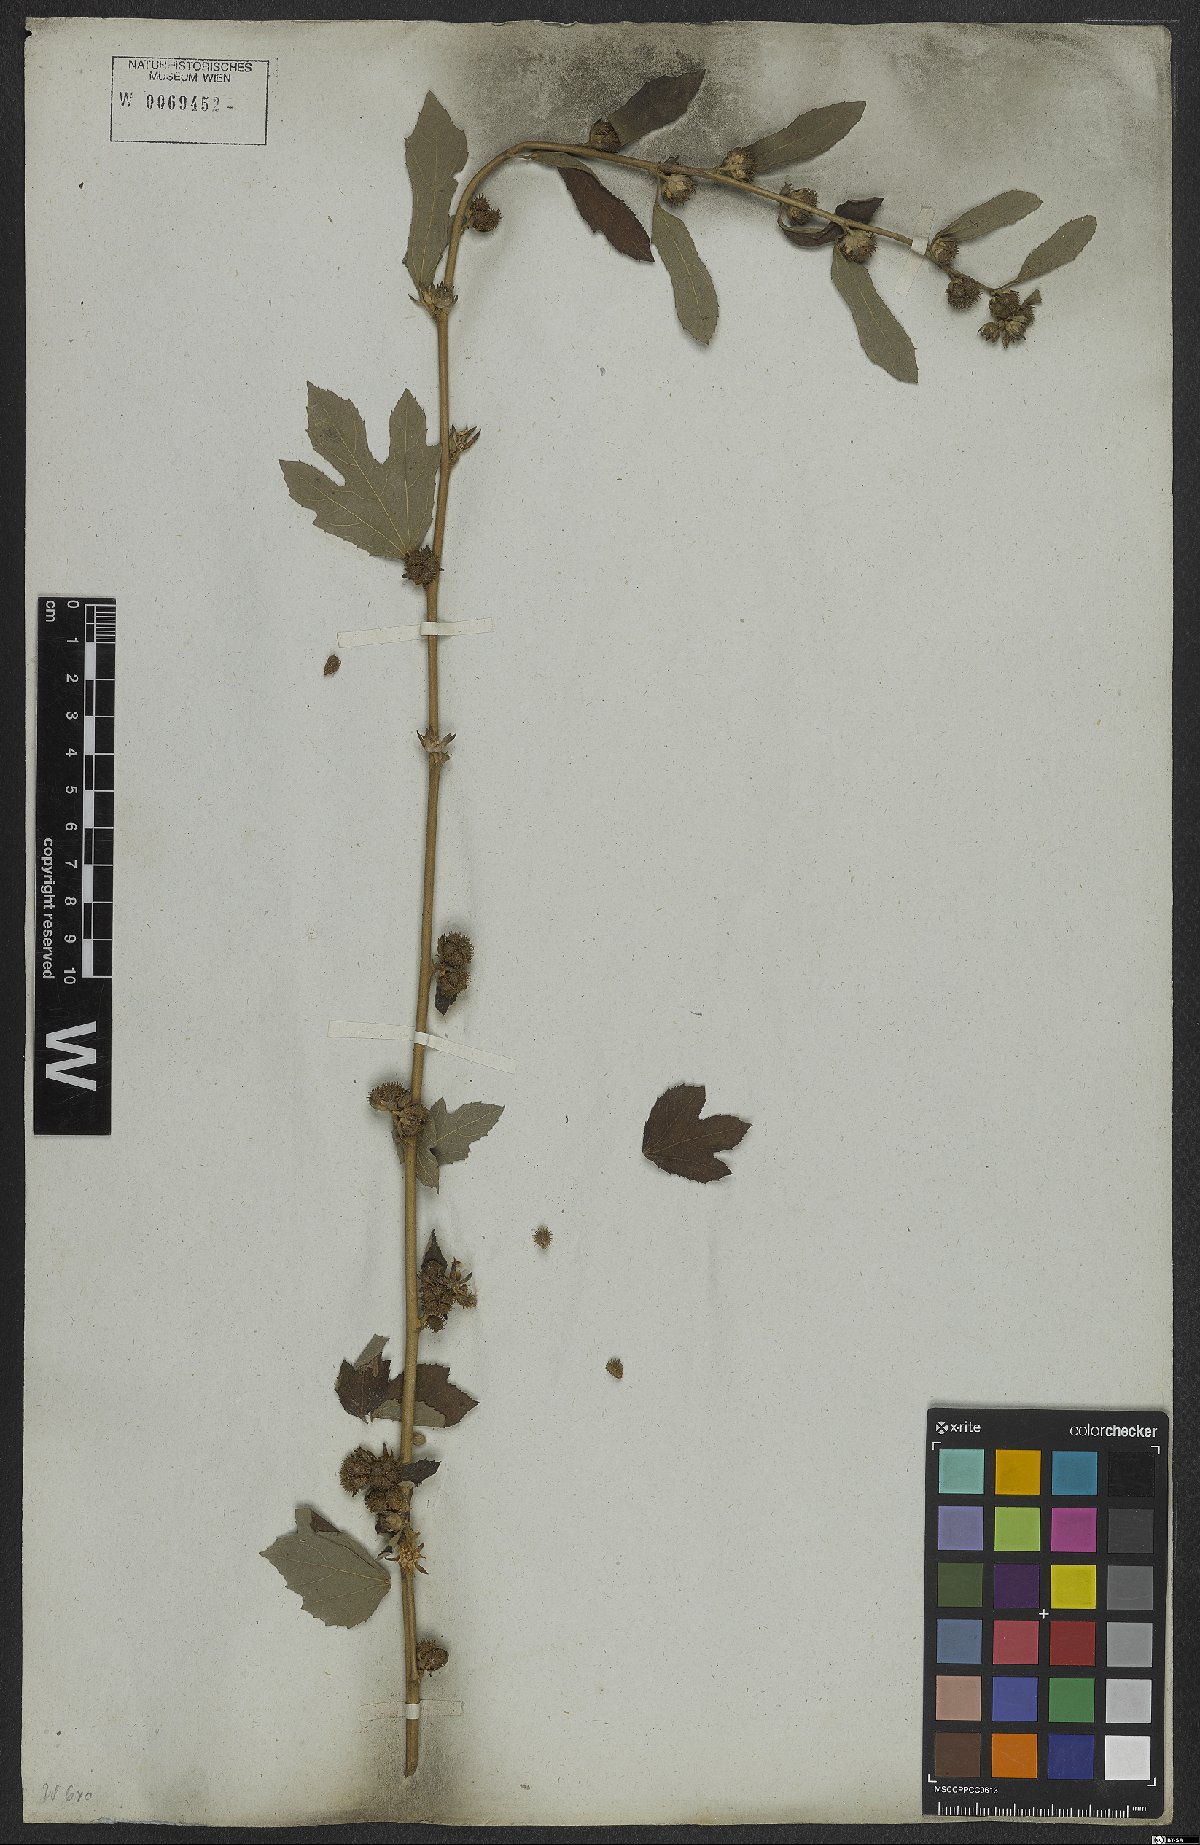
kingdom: Plantae
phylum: Tracheophyta
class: Magnoliopsida
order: Malvales
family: Malvaceae
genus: Urena
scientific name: Urena lobata
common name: Caesarweed
